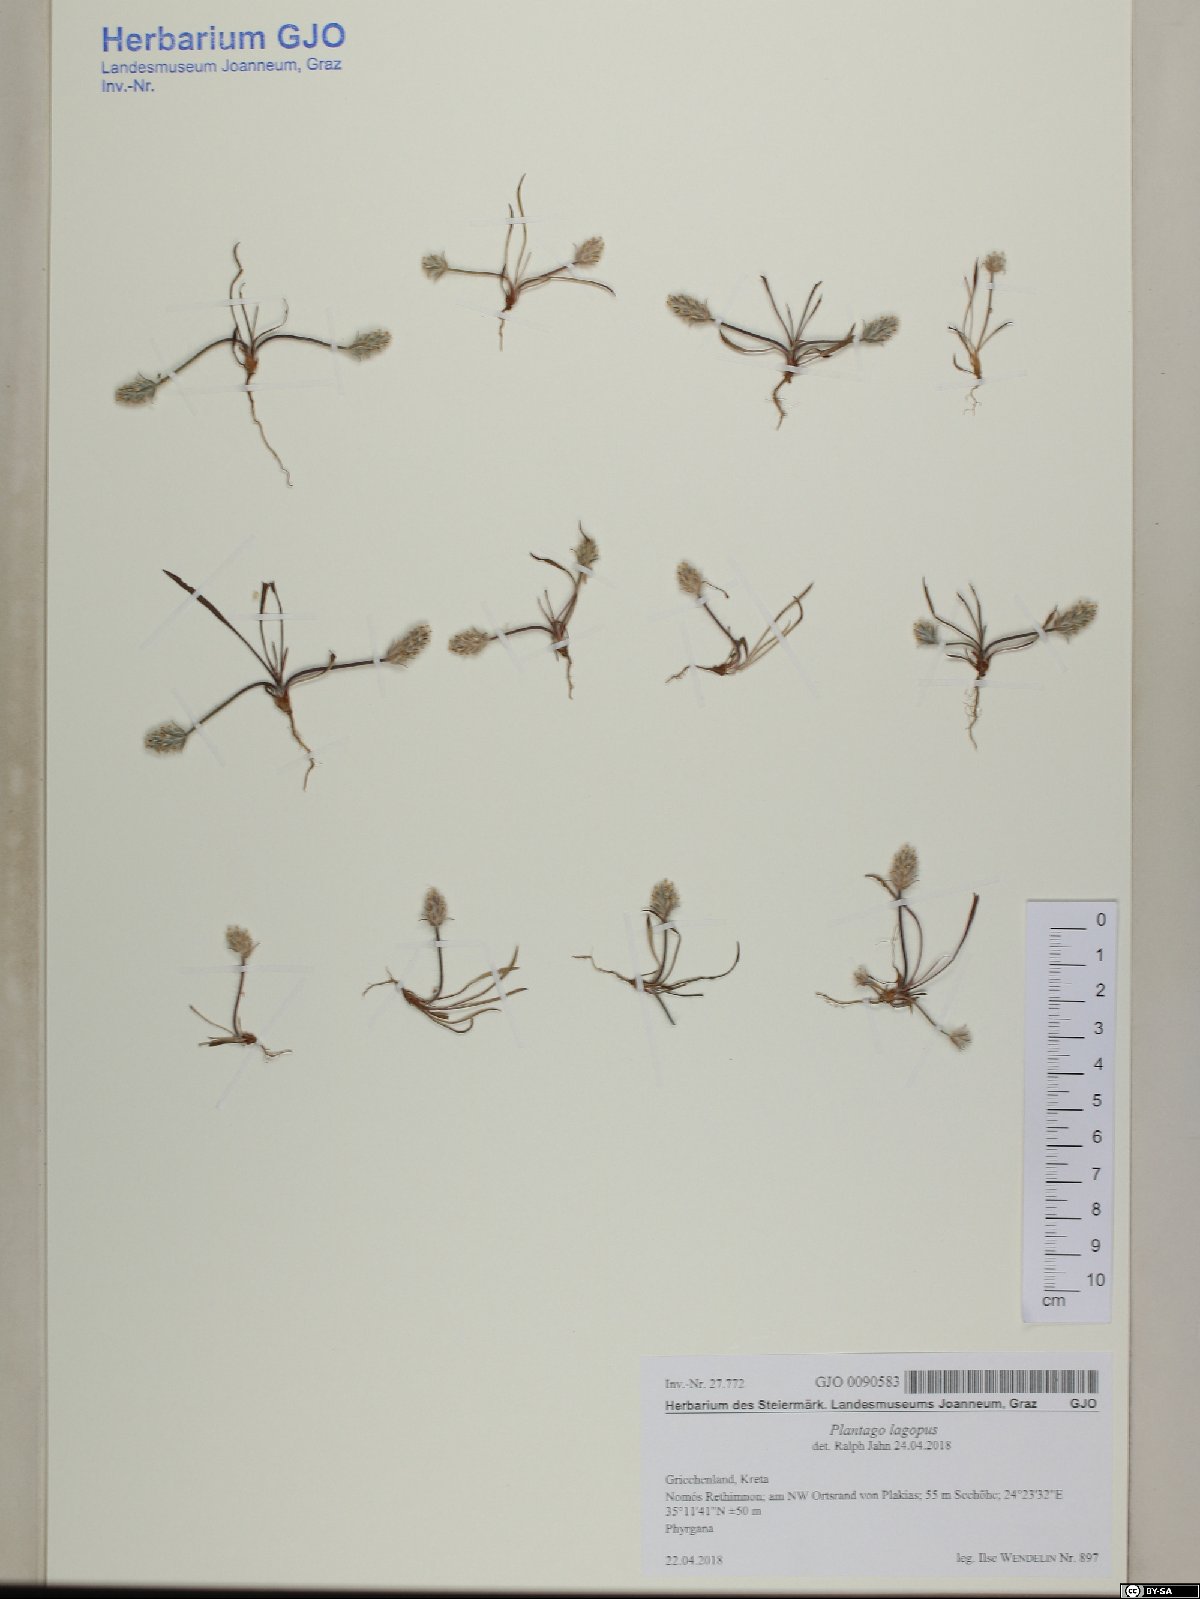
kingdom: Plantae
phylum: Tracheophyta
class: Magnoliopsida
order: Lamiales
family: Plantaginaceae
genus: Plantago
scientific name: Plantago lagopus
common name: Hare-foot plantain
